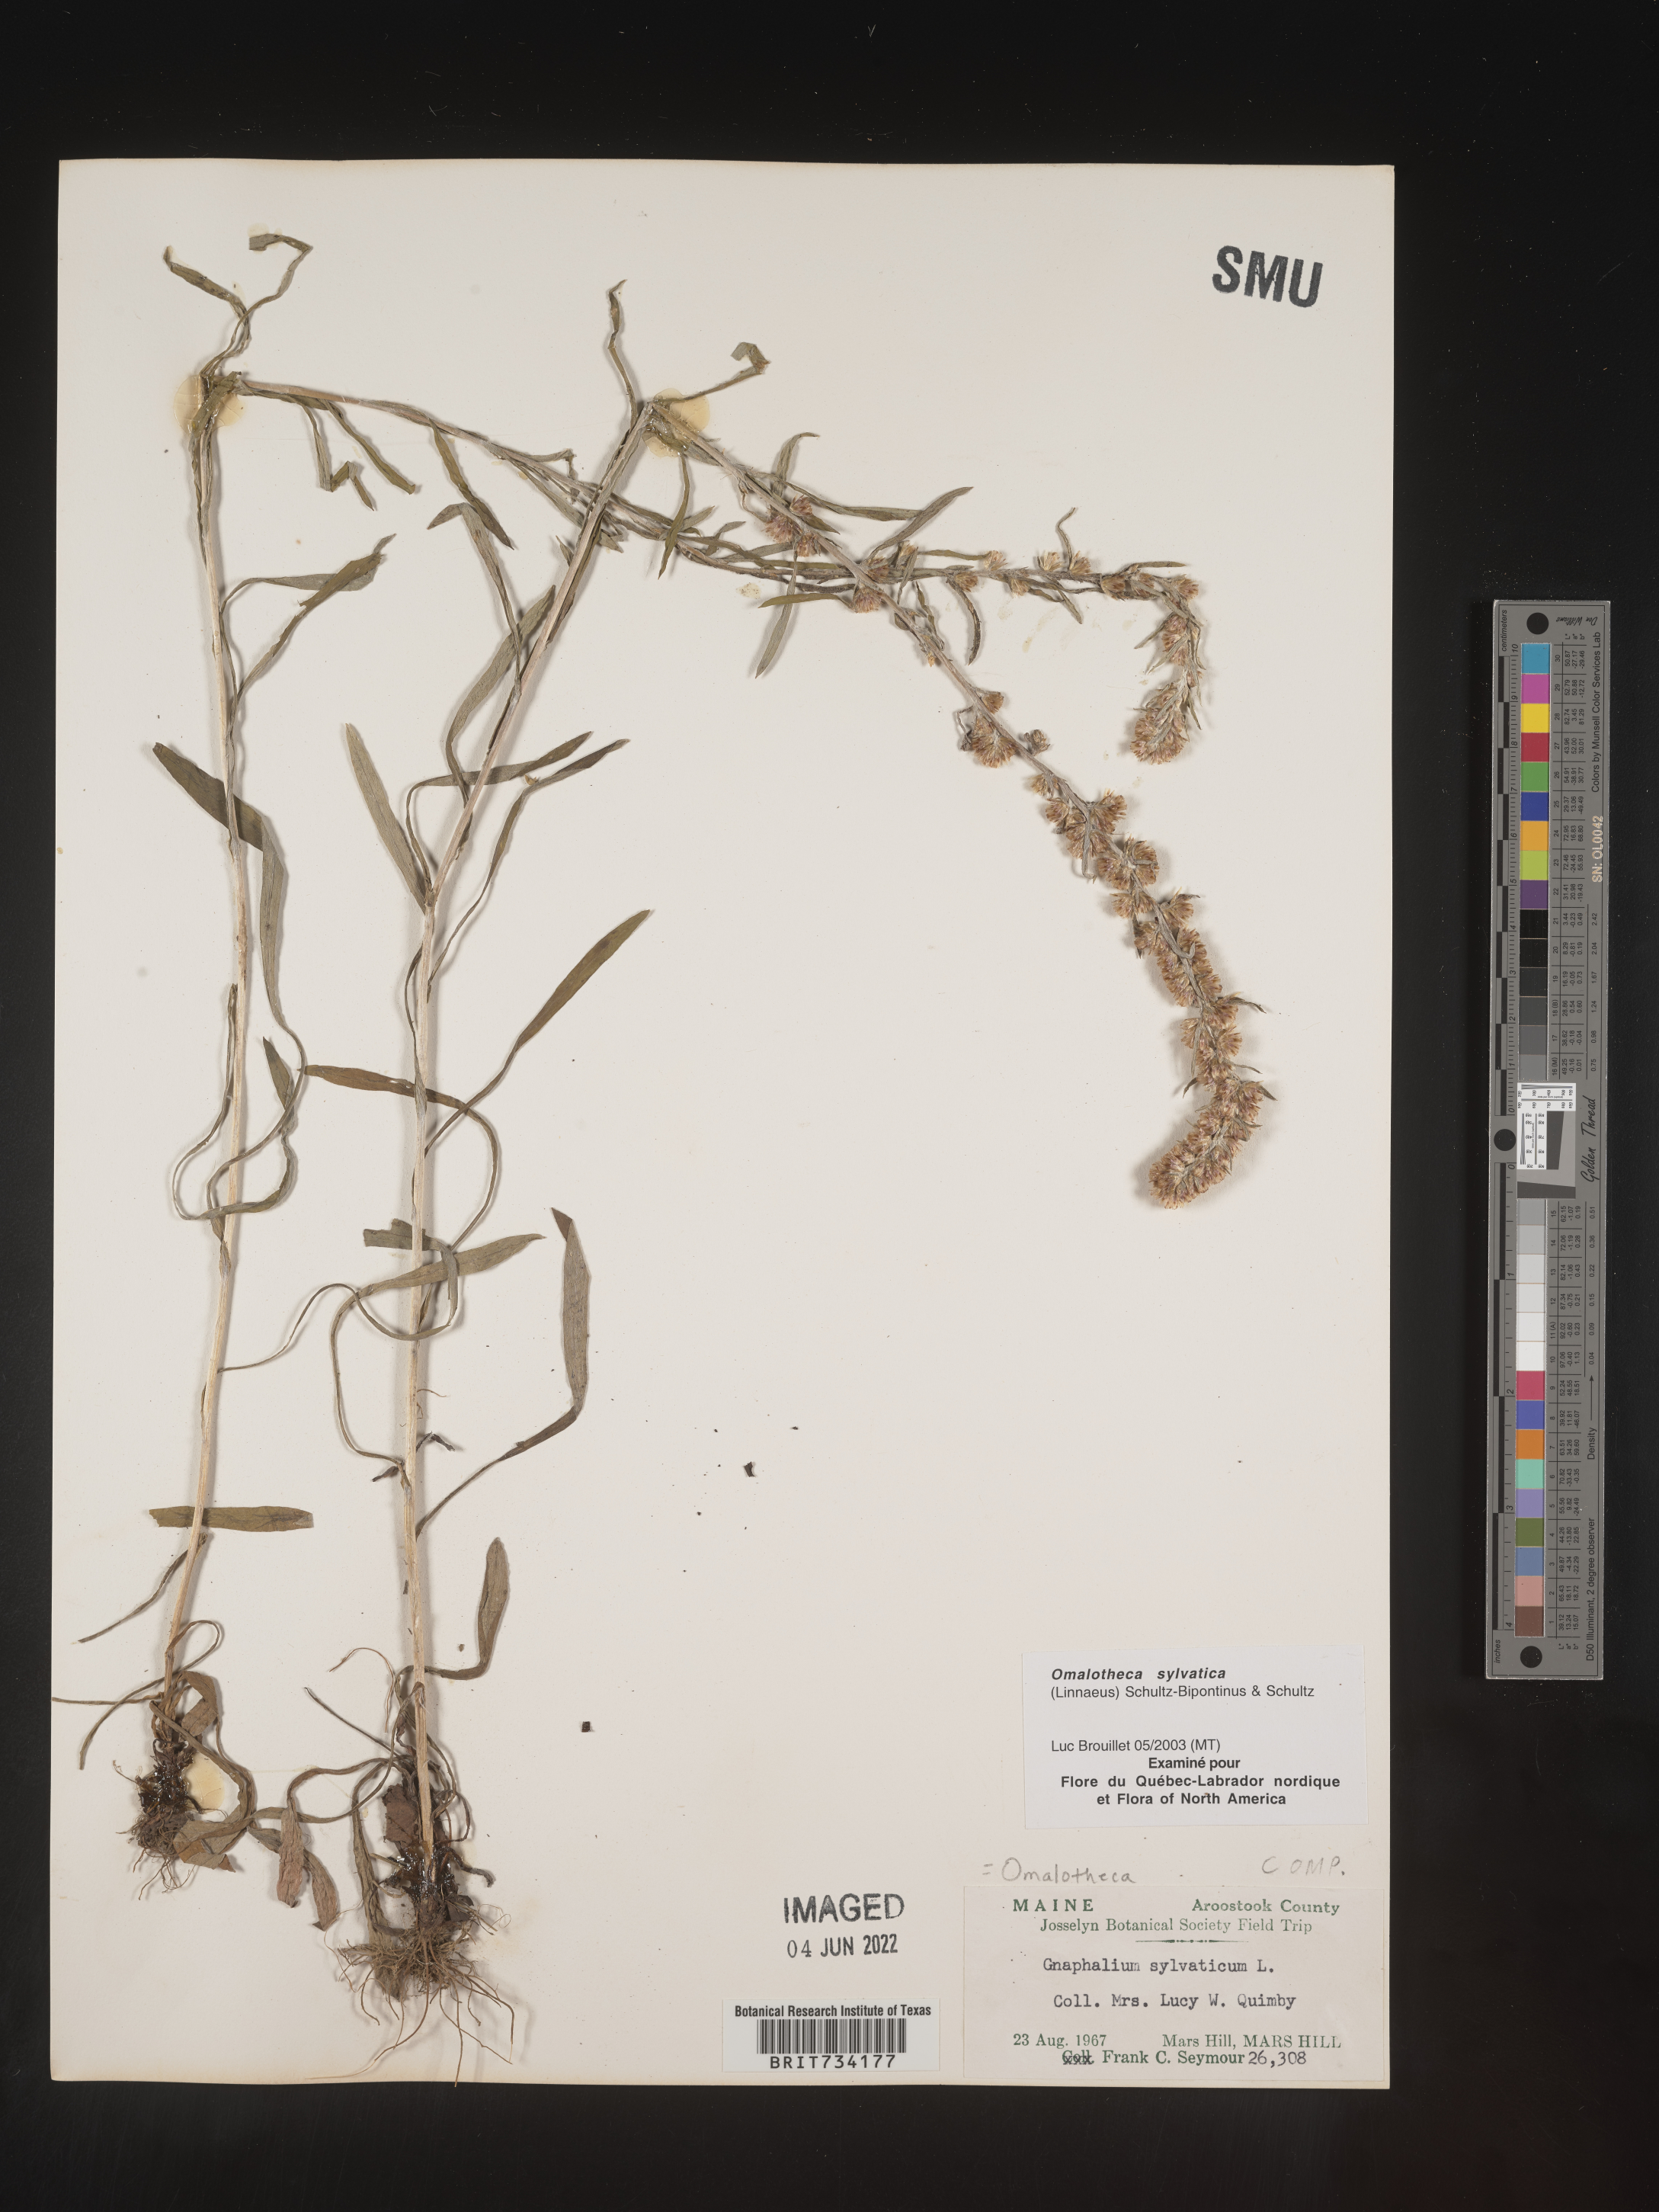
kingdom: Plantae
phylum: Tracheophyta
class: Magnoliopsida
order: Asterales
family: Asteraceae
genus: Omalotheca
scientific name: Omalotheca
